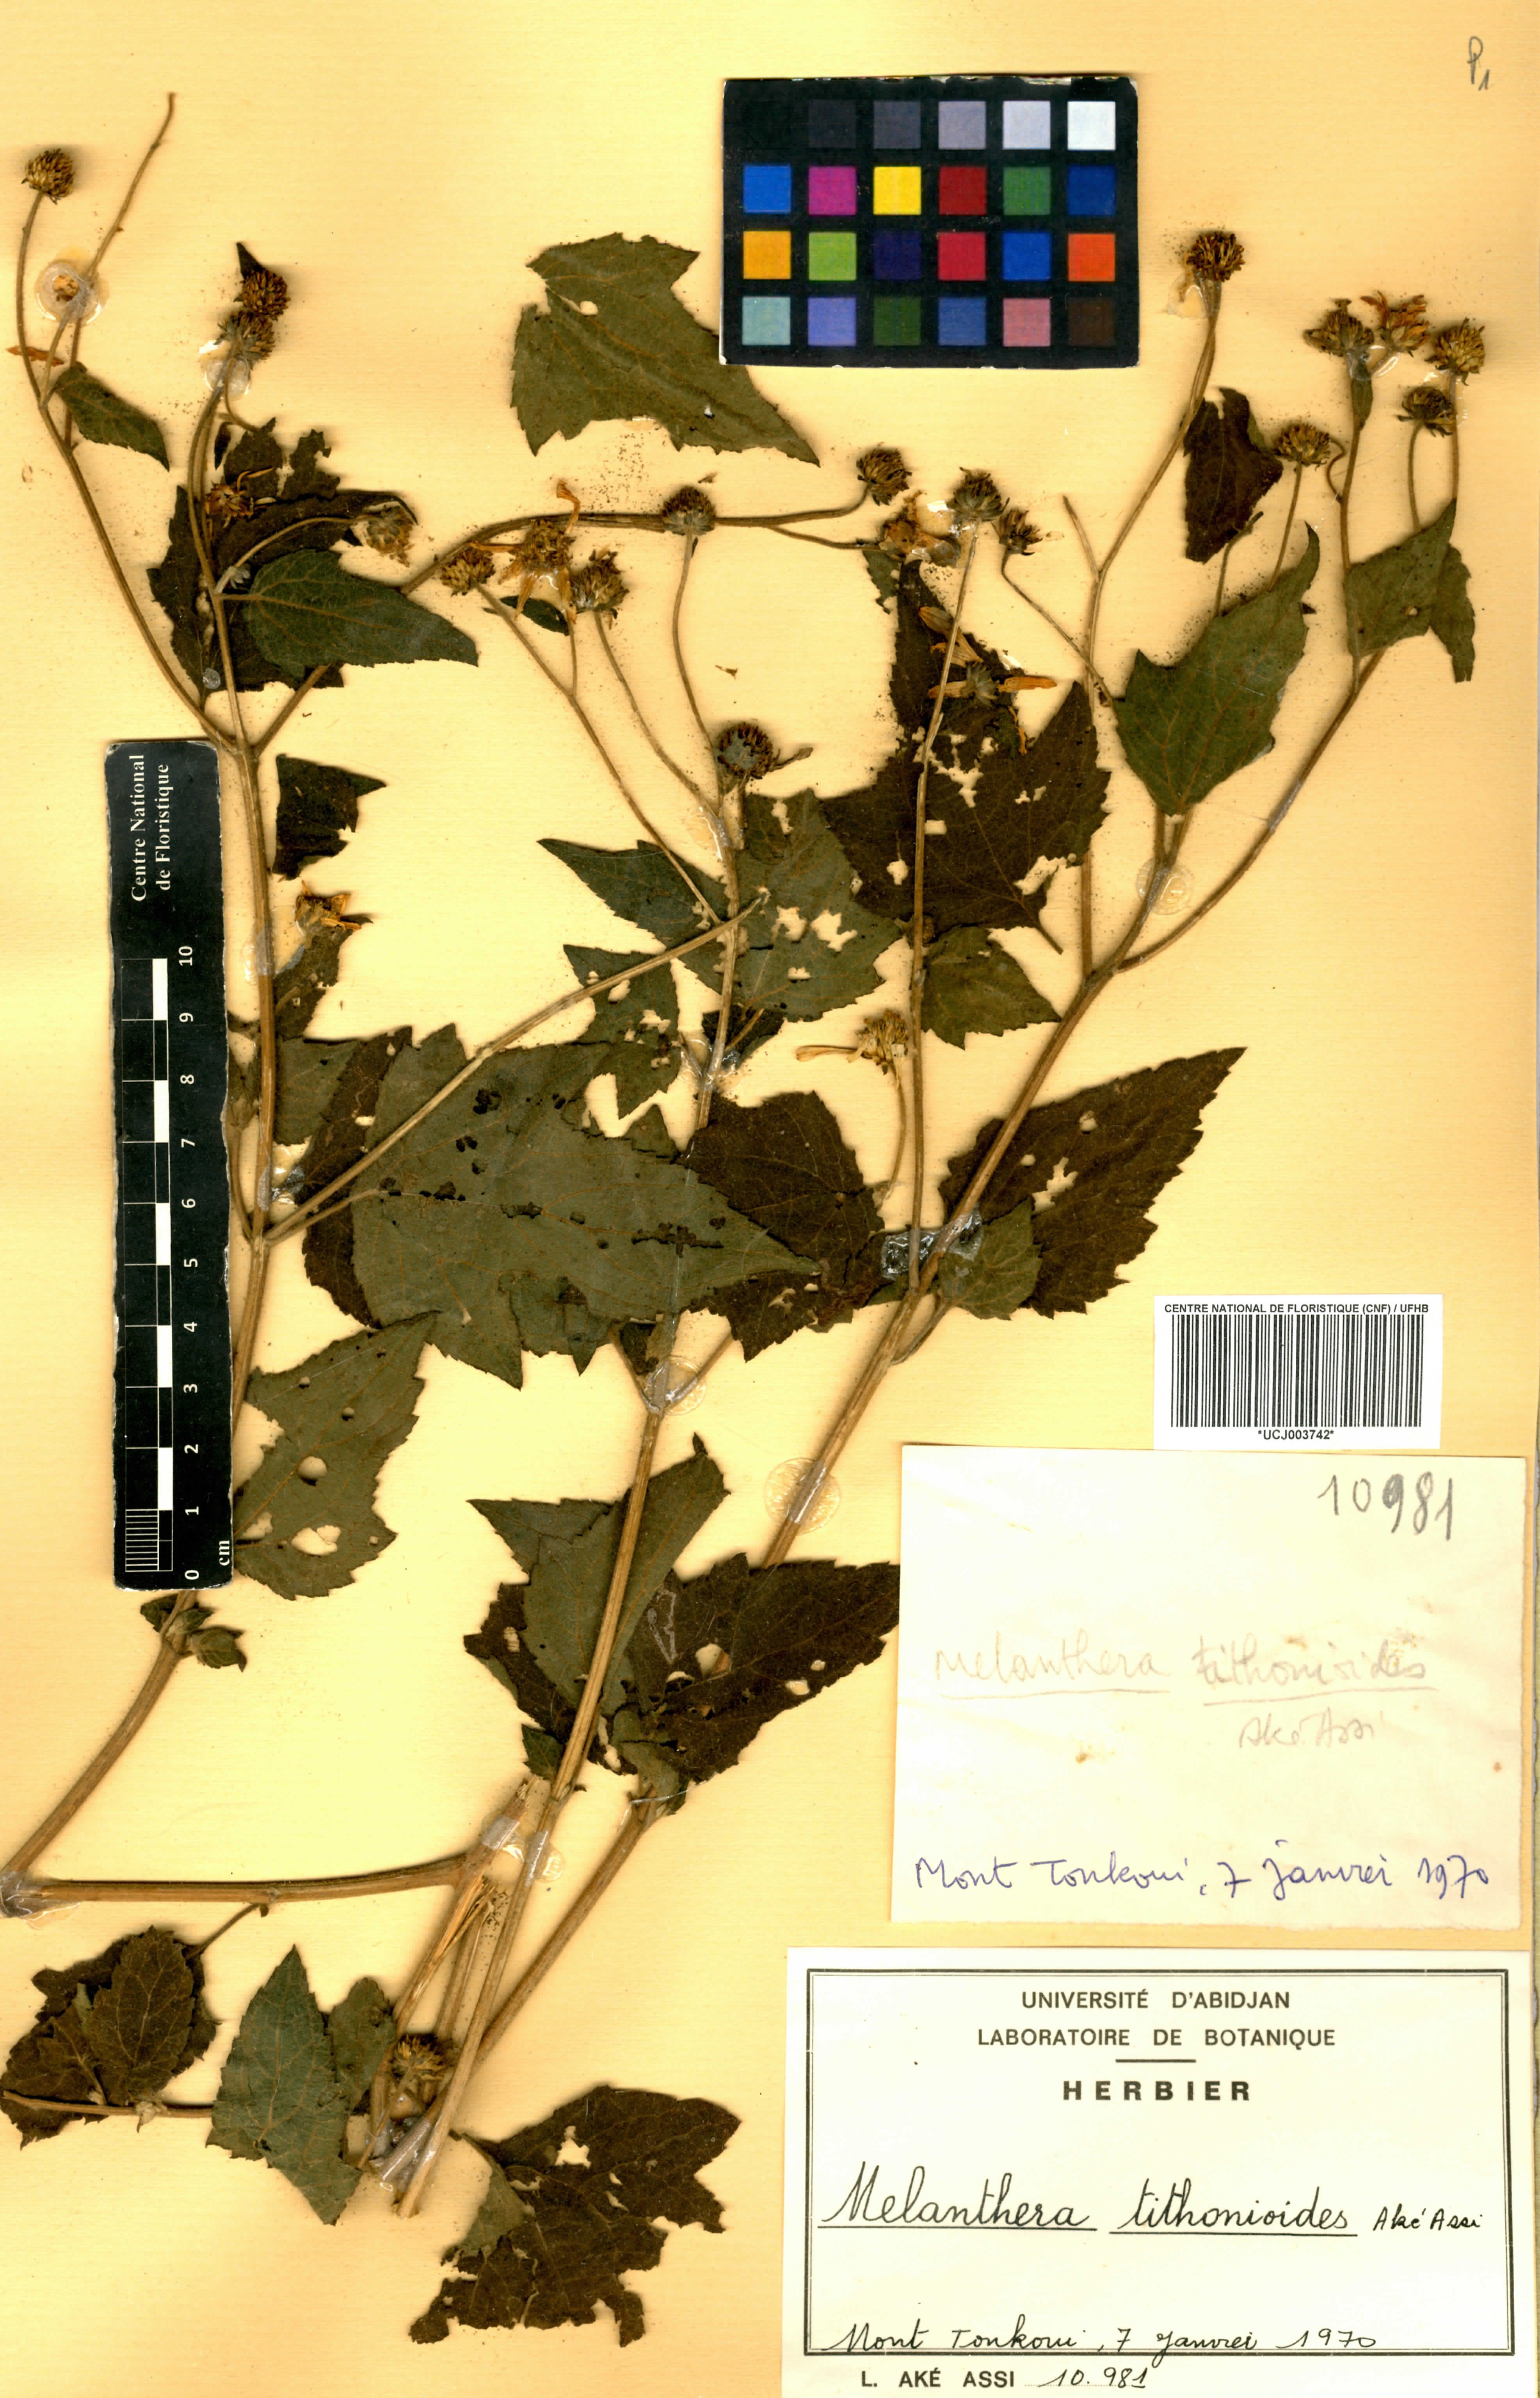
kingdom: Plantae
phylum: Tracheophyta
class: Magnoliopsida
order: Asterales
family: Asteraceae
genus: Lipotriche
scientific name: Lipotriche tithonioides
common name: Simandou daisy
